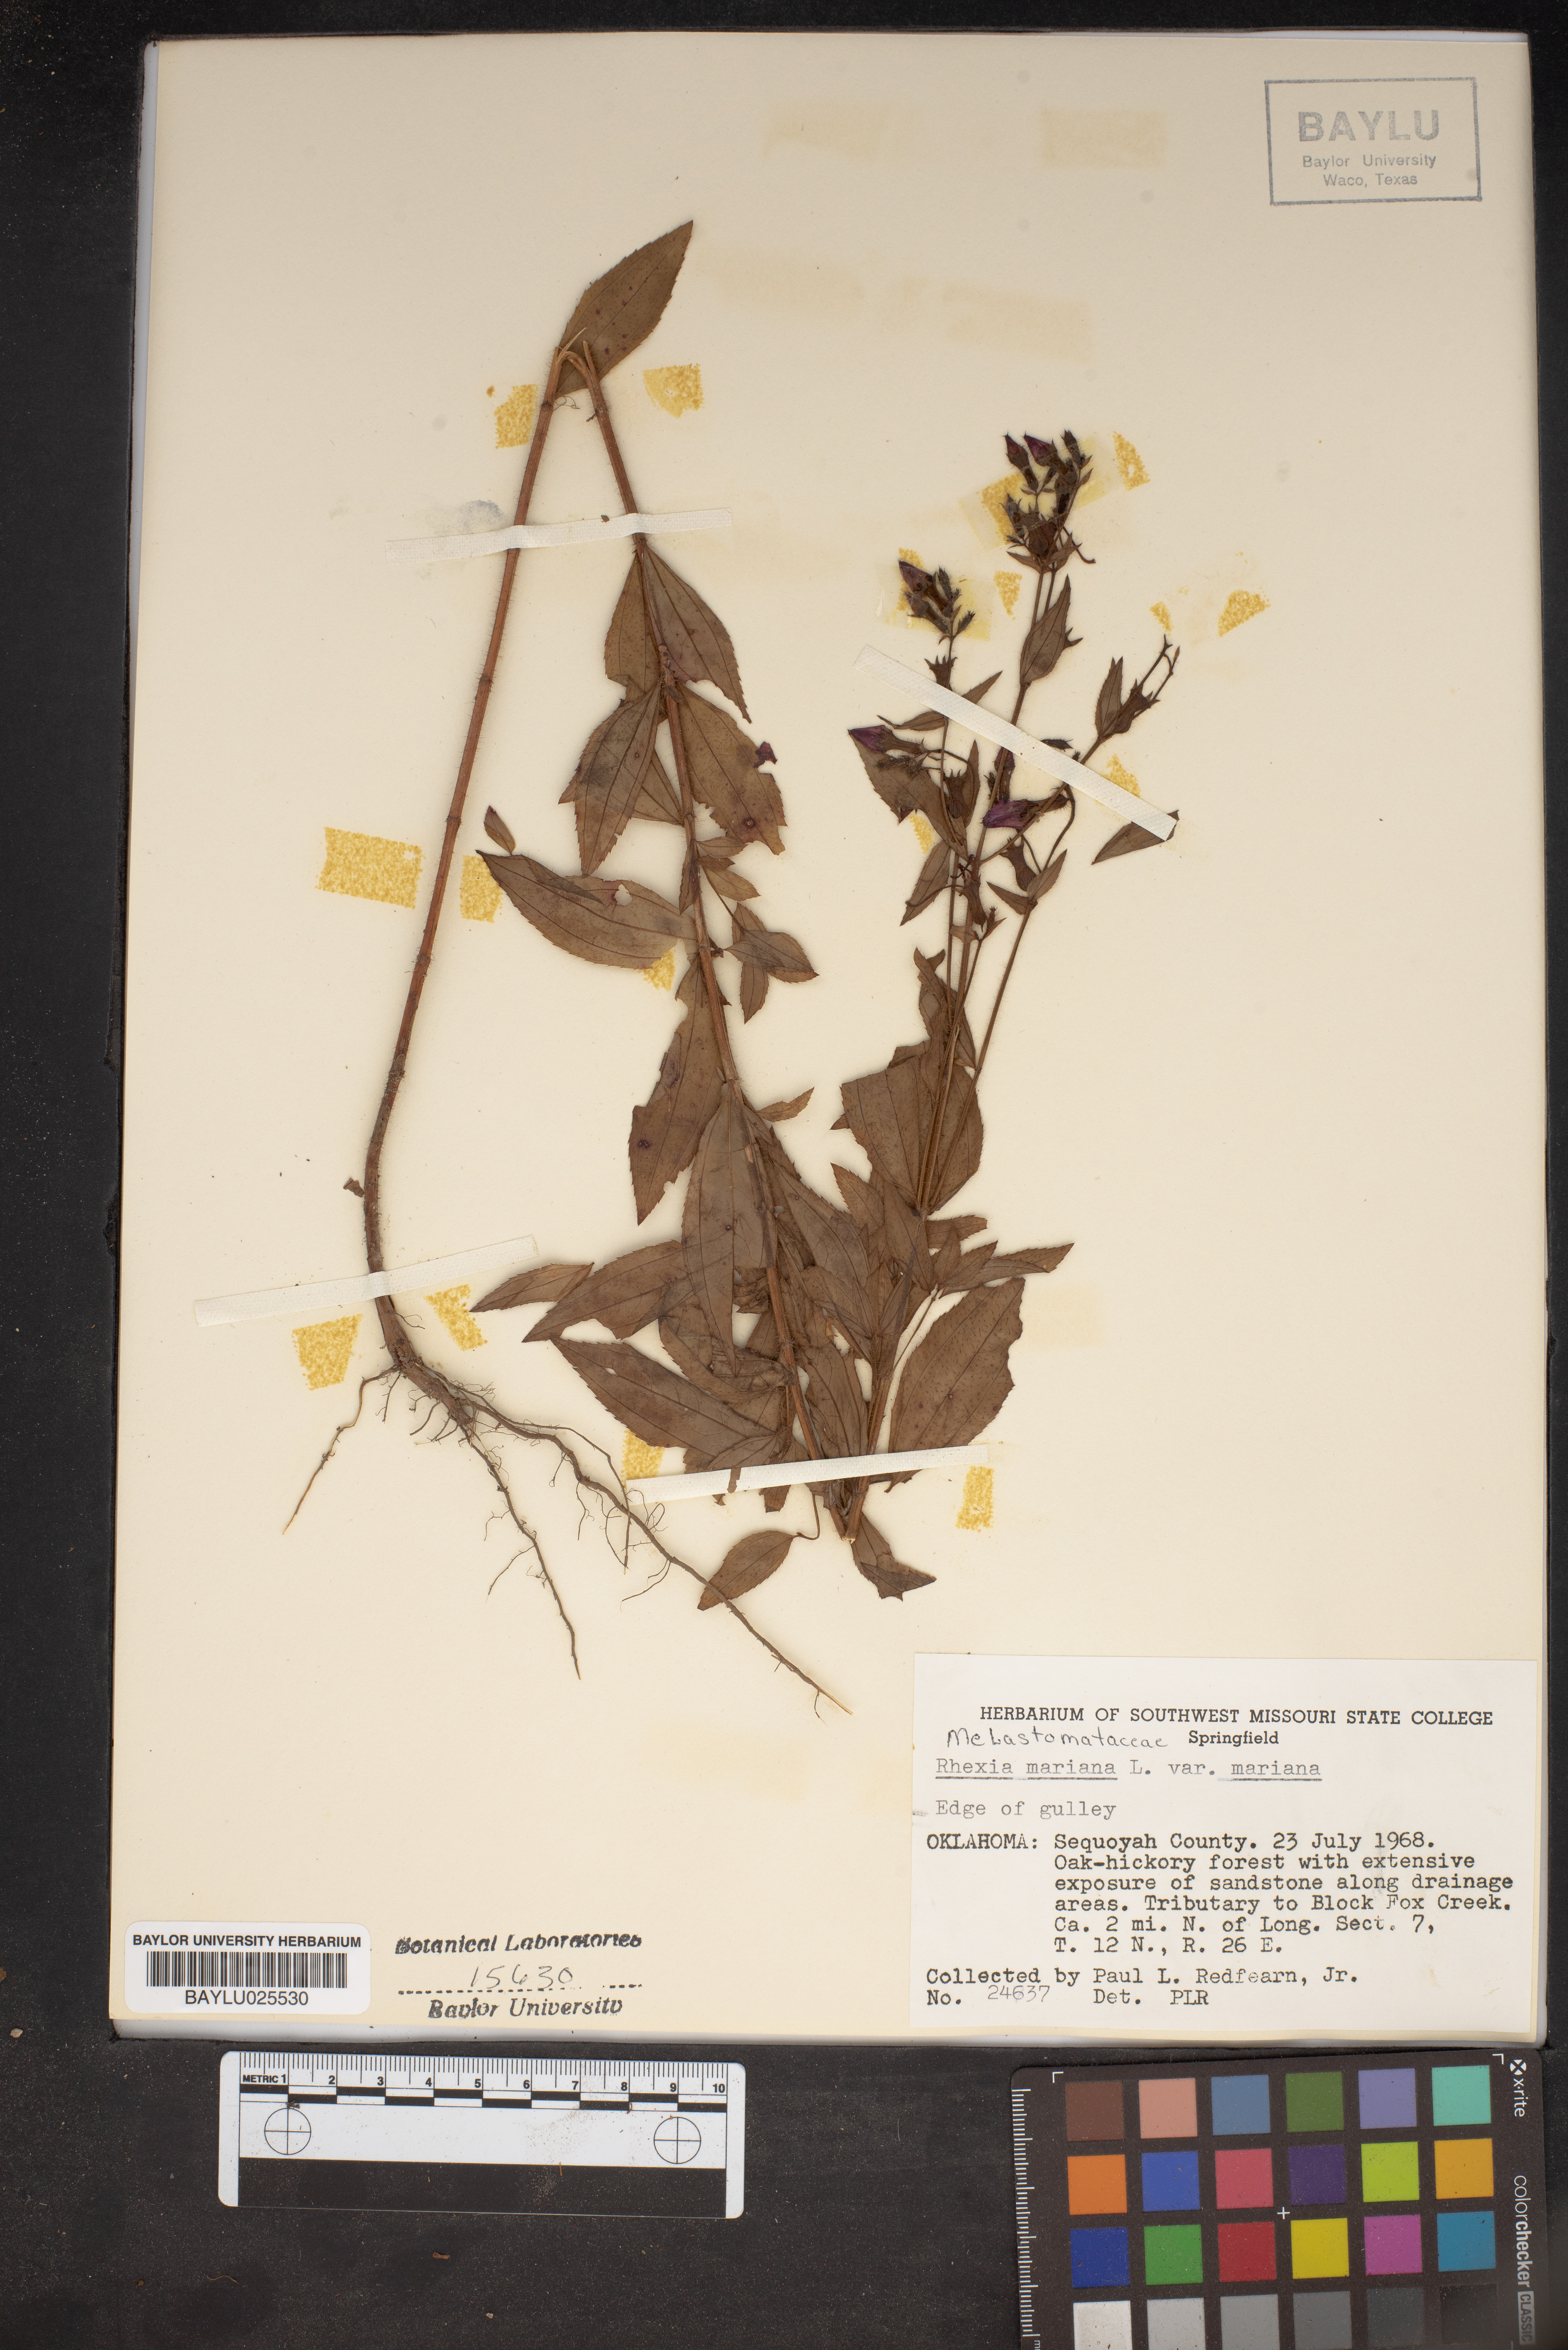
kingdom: Plantae
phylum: Tracheophyta
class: Magnoliopsida
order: Myrtales
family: Melastomataceae
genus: Rhexia
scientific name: Rhexia mariana
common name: Dull meadow-pitcher
